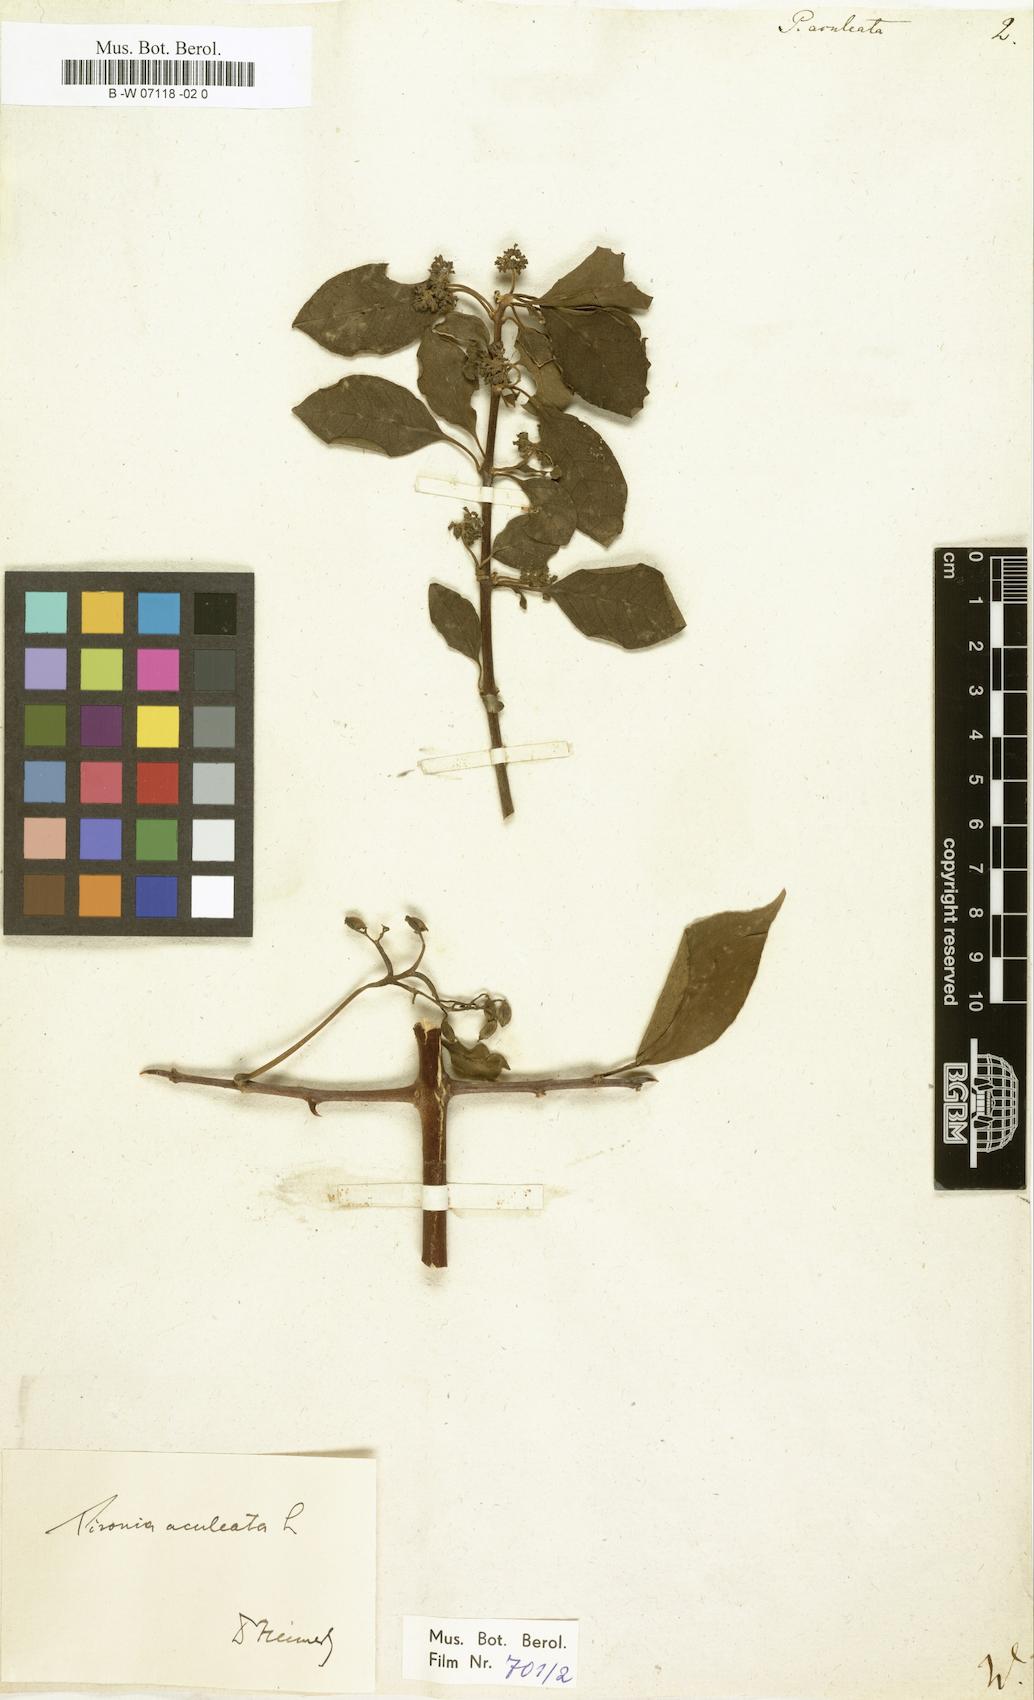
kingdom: Plantae
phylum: Tracheophyta
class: Magnoliopsida
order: Caryophyllales
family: Nyctaginaceae
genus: Pisonia
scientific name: Pisonia aculeata
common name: Cockspur vine
